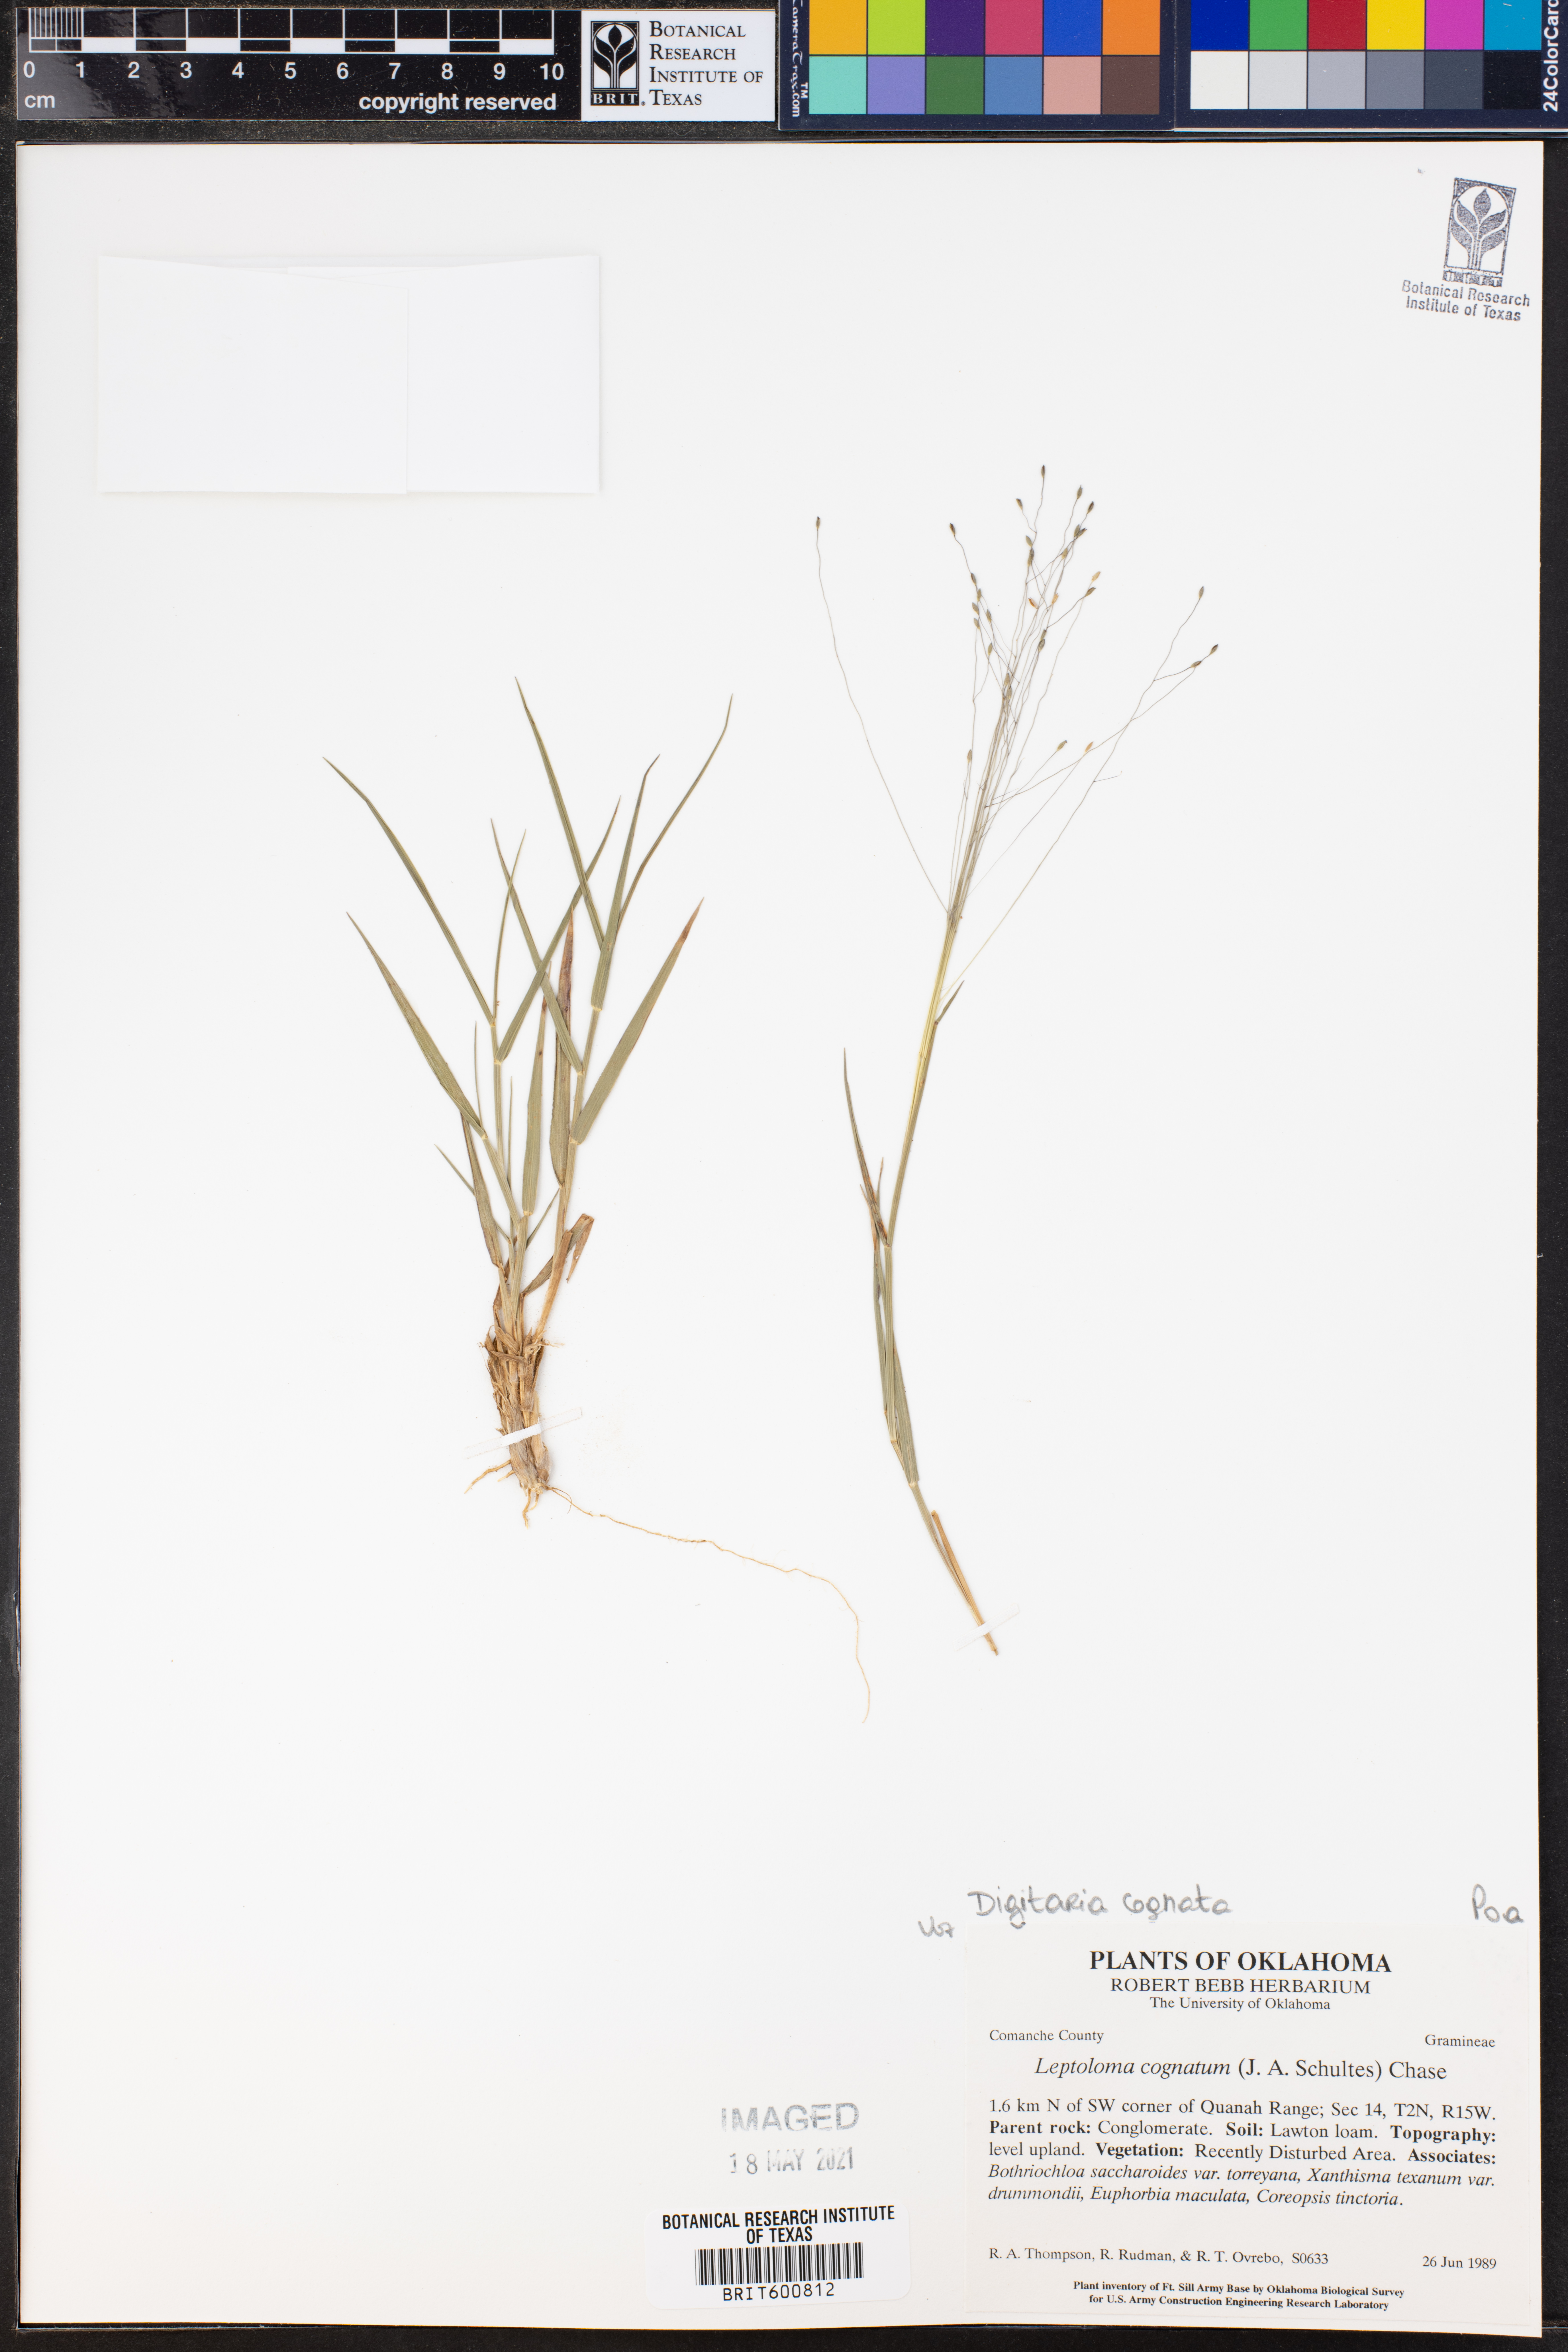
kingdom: Plantae
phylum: Tracheophyta
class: Liliopsida
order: Poales
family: Poaceae
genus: Digitaria
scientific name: Digitaria cognata
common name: Fall witchgrass
